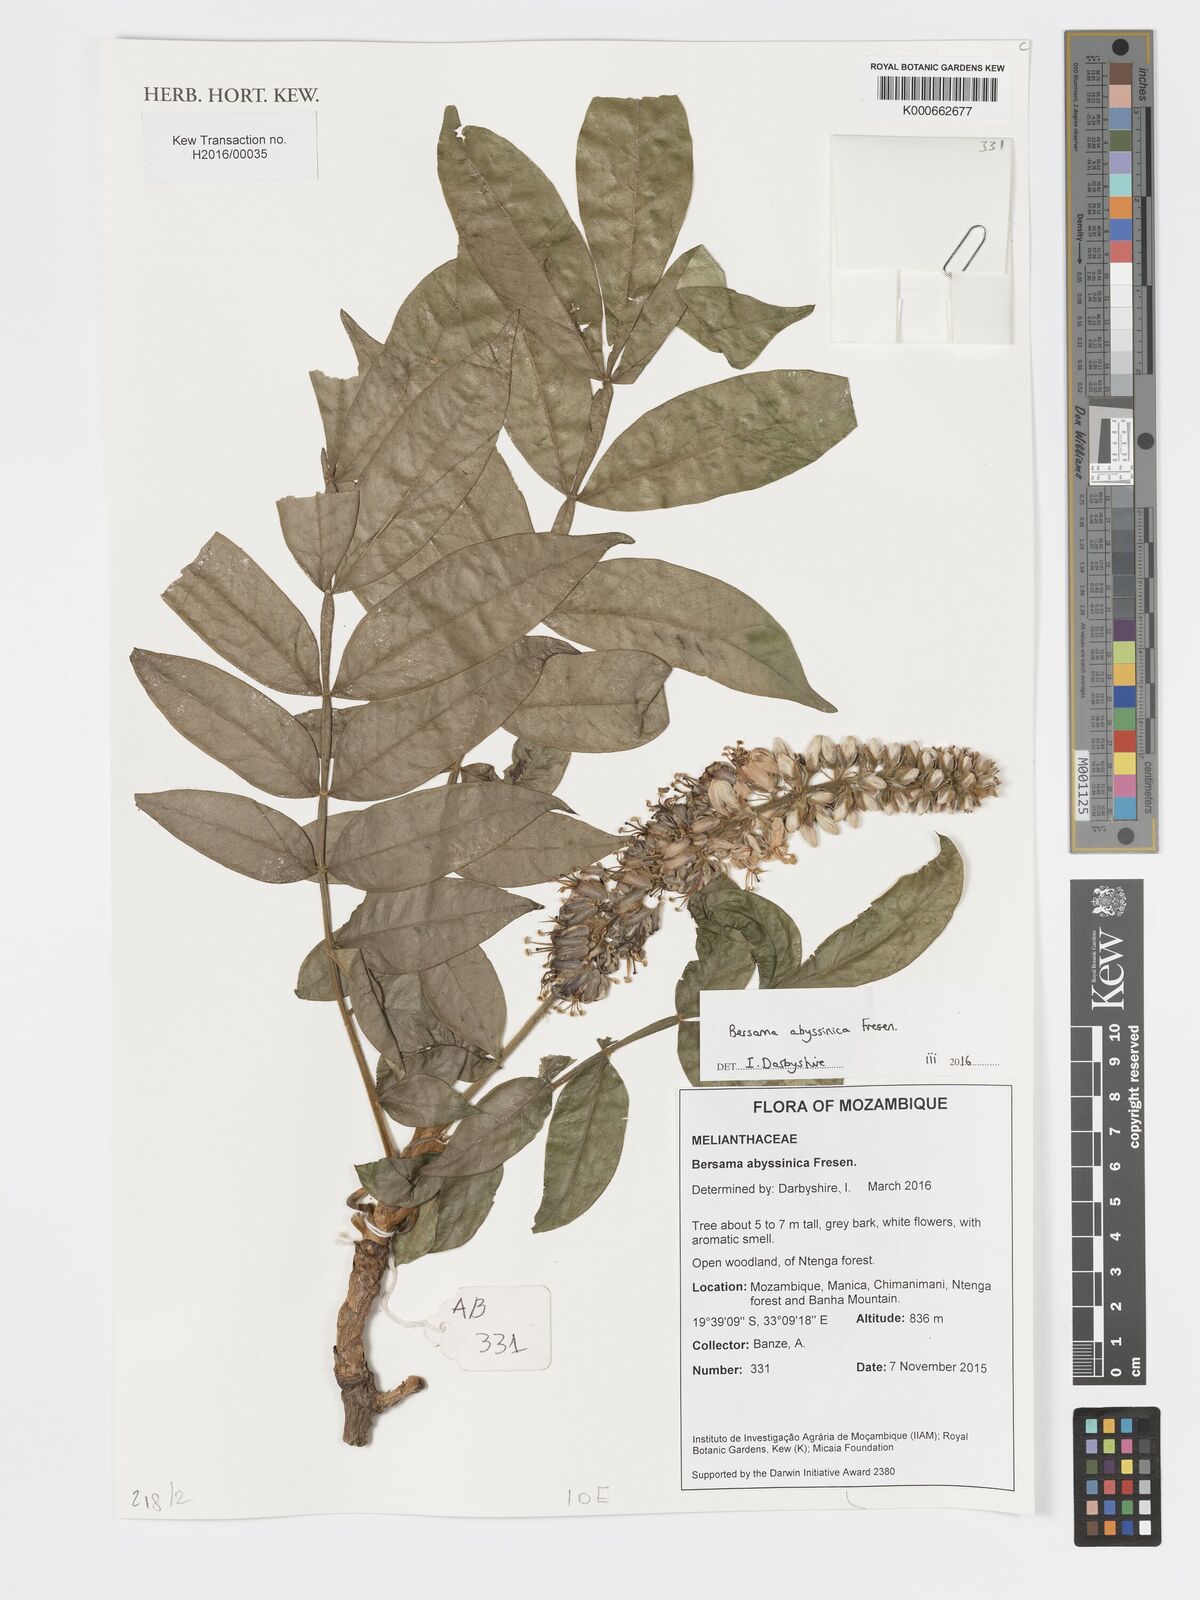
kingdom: Plantae
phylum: Tracheophyta
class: Magnoliopsida
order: Geraniales
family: Melianthaceae
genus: Bersama
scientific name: Bersama abyssinica
